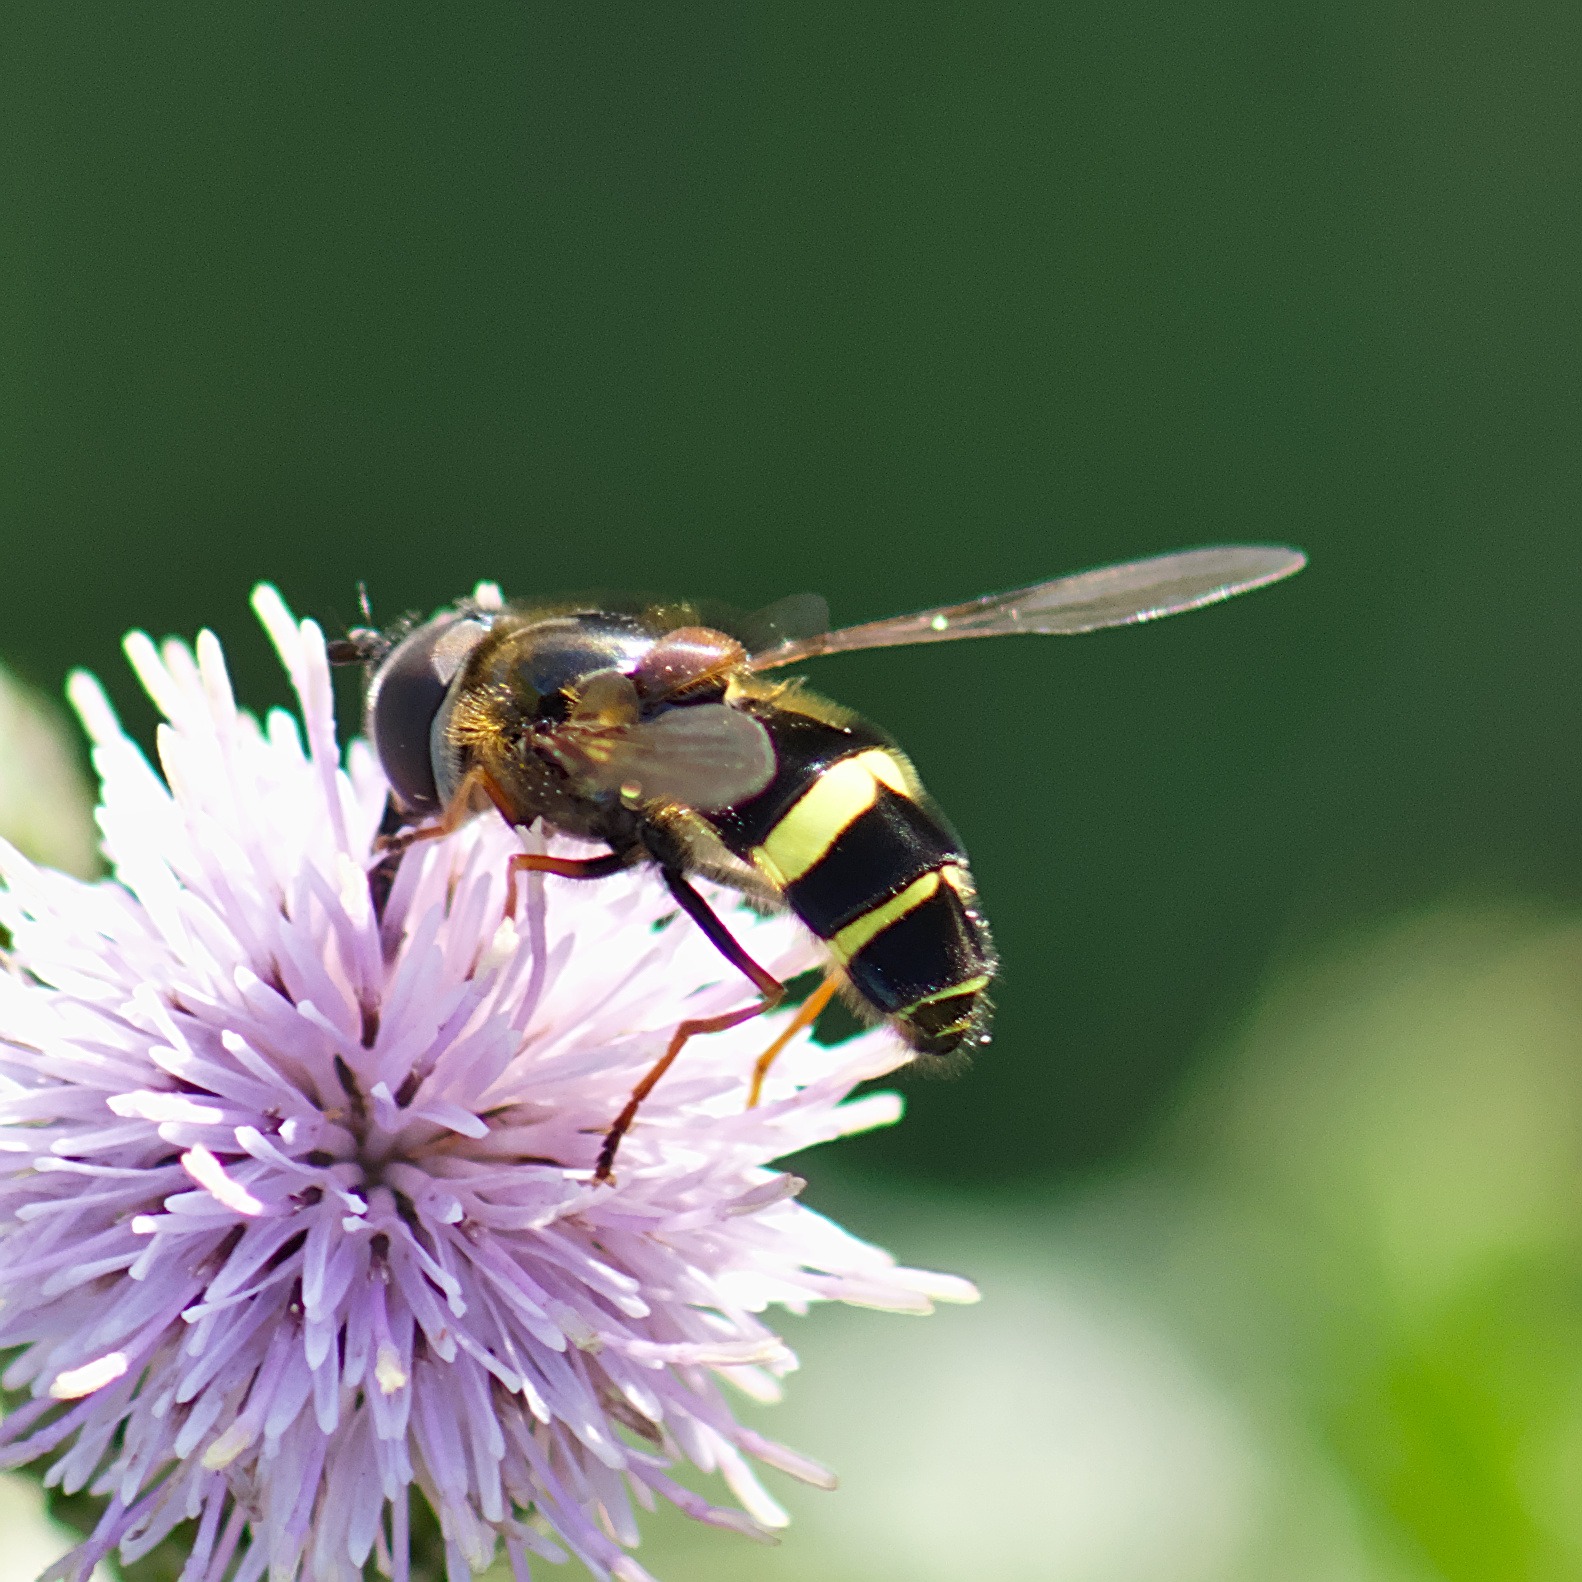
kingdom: Animalia
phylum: Arthropoda
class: Insecta
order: Diptera
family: Syrphidae
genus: Dasysyrphus
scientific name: Dasysyrphus tricinctus
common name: Bredbåndet skovsvirreflue
